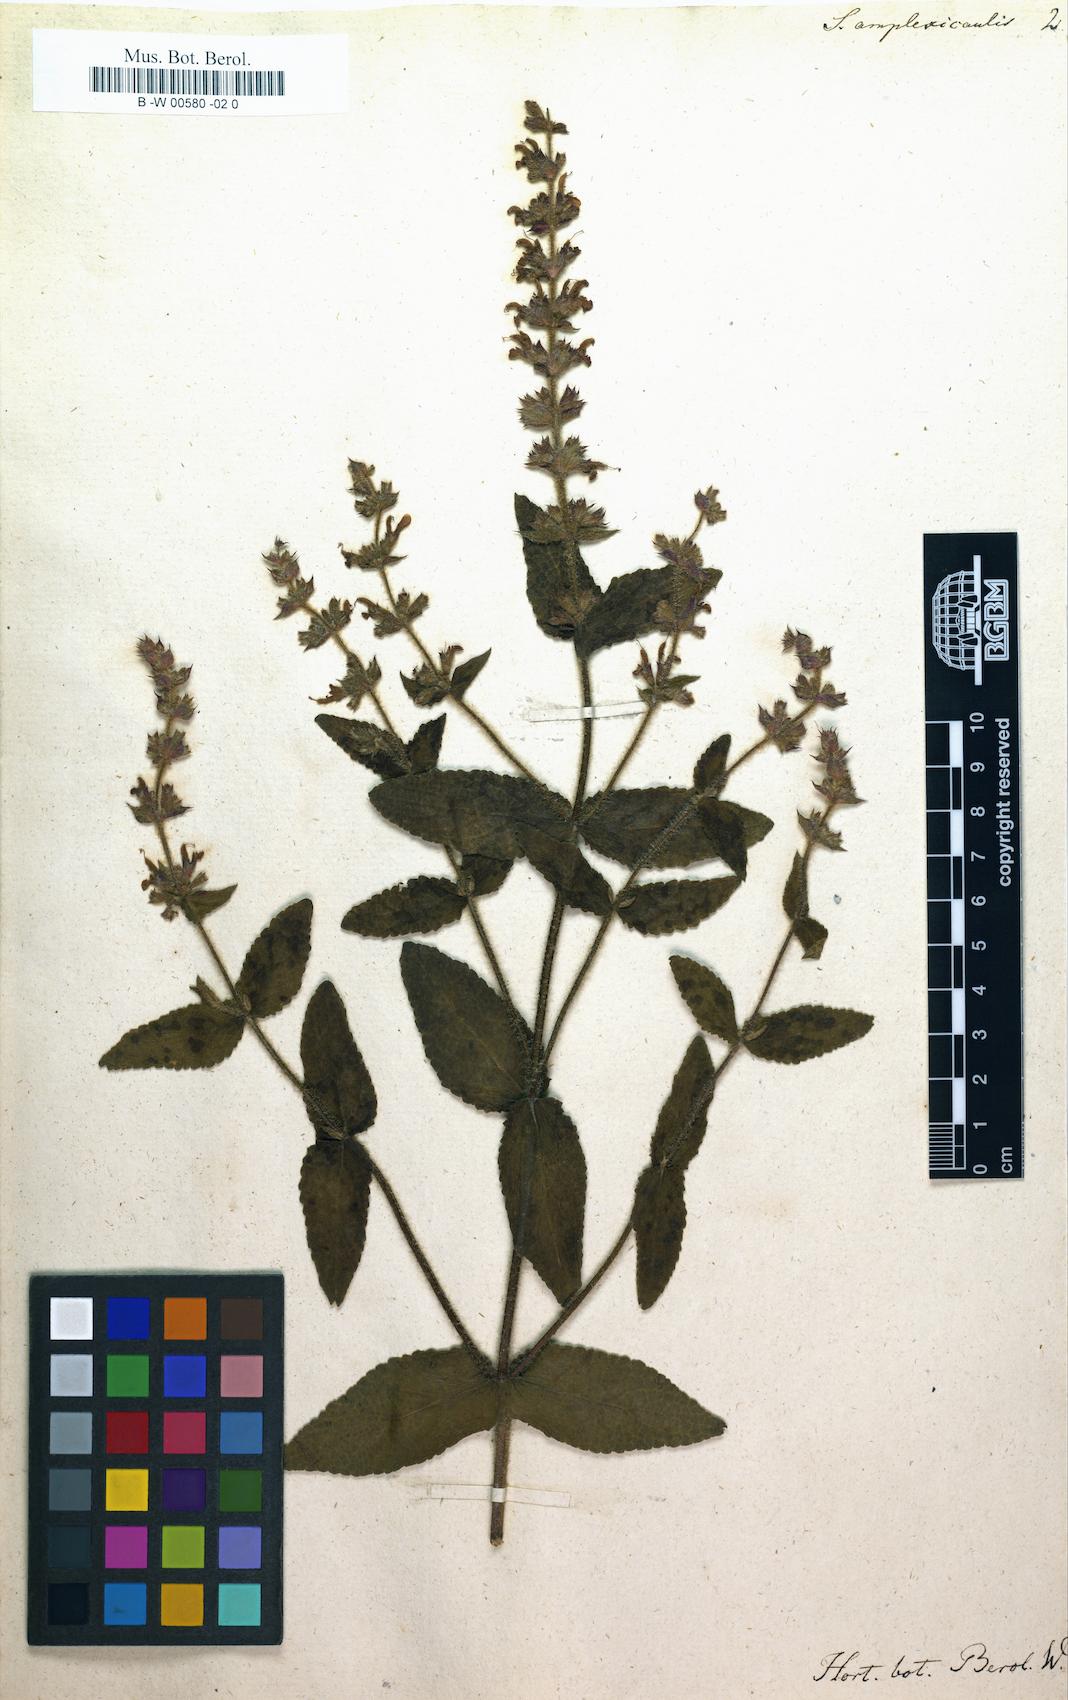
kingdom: Plantae
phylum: Tracheophyta
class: Magnoliopsida
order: Lamiales
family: Lamiaceae
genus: Salvia
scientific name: Salvia amplexicaulis
